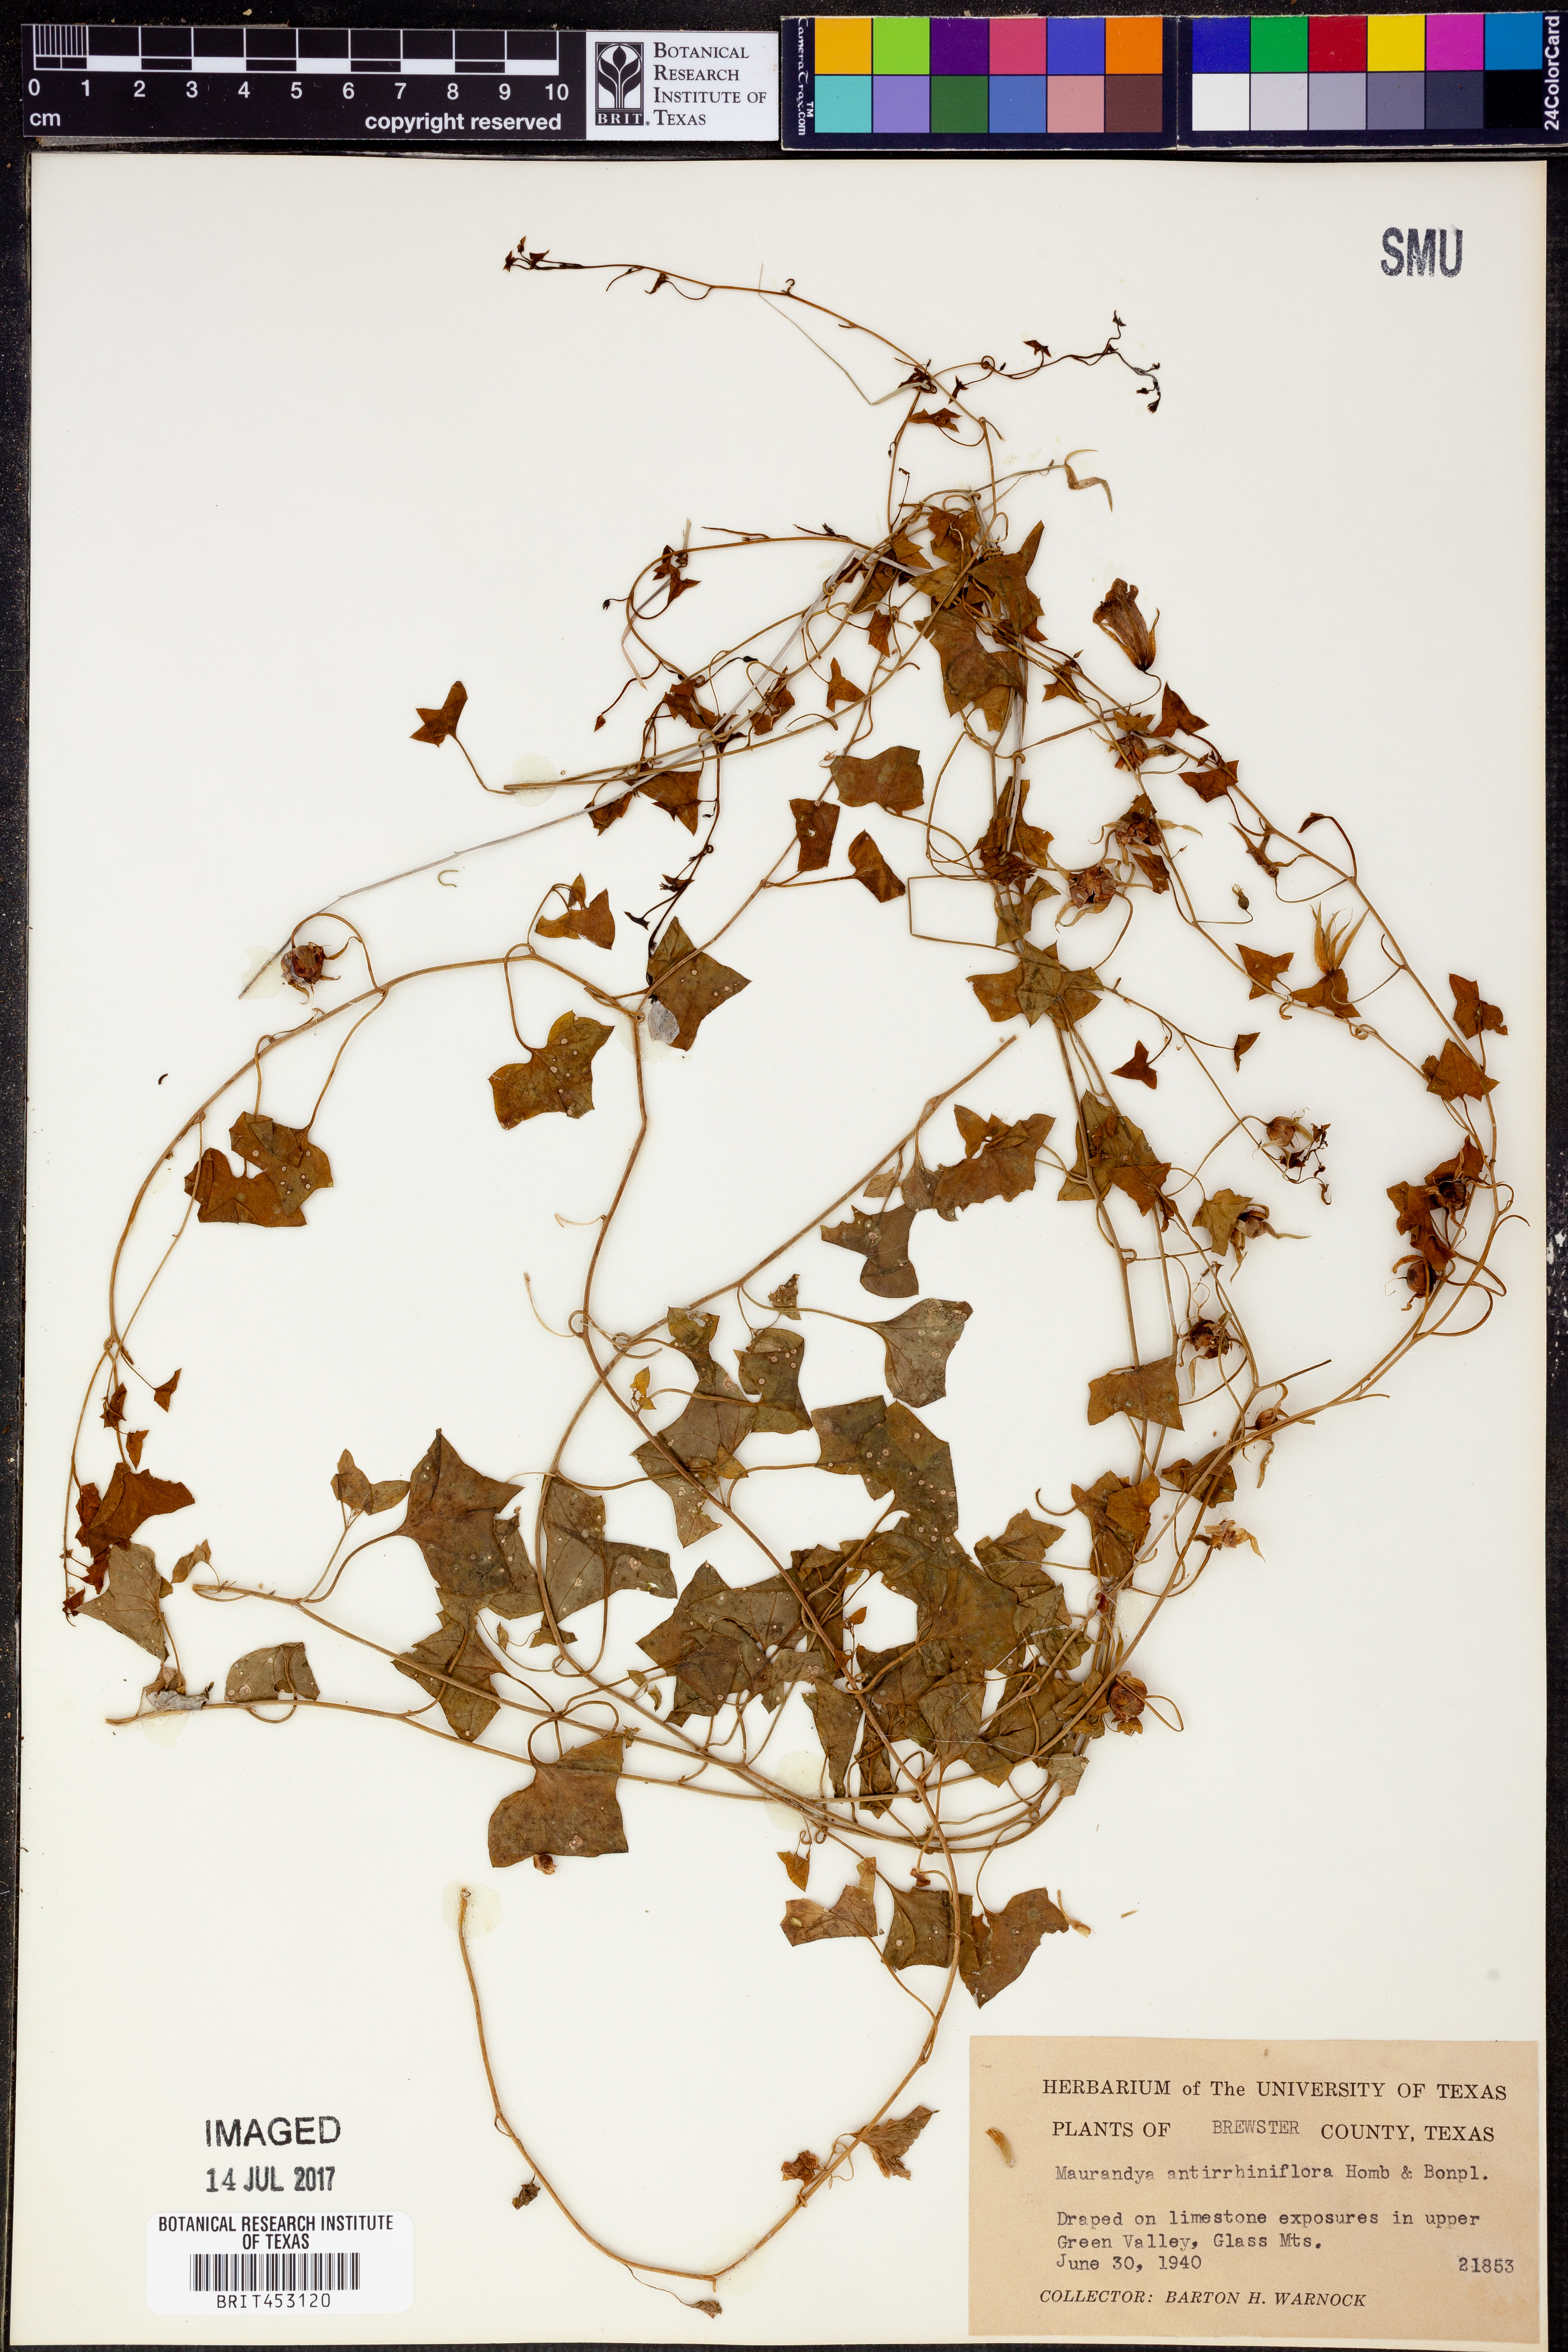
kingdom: Plantae
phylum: Tracheophyta
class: Magnoliopsida
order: Lamiales
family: Plantaginaceae
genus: Maurandella
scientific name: Maurandella antirrhiniflora
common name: Violet twining-snapdragon
